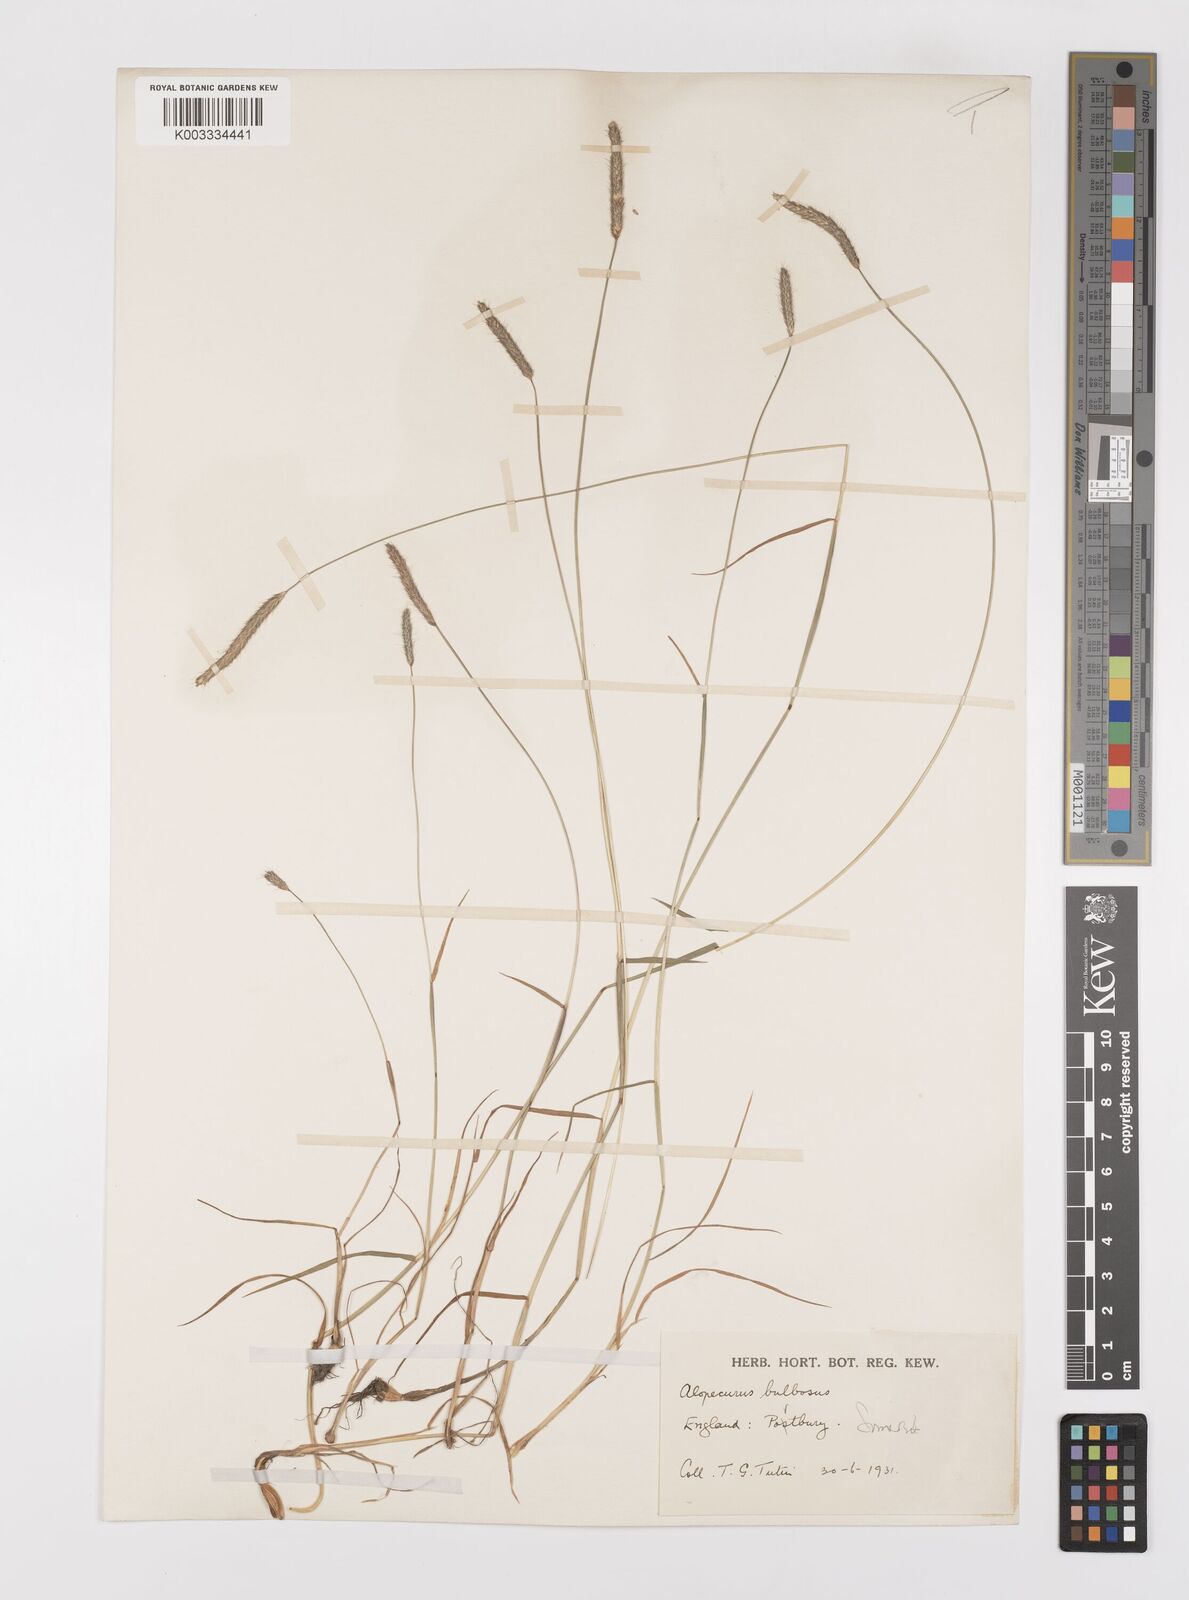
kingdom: Plantae
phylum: Tracheophyta
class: Liliopsida
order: Poales
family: Poaceae
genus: Alopecurus
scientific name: Alopecurus bulbosus
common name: Bulbous foxtail
